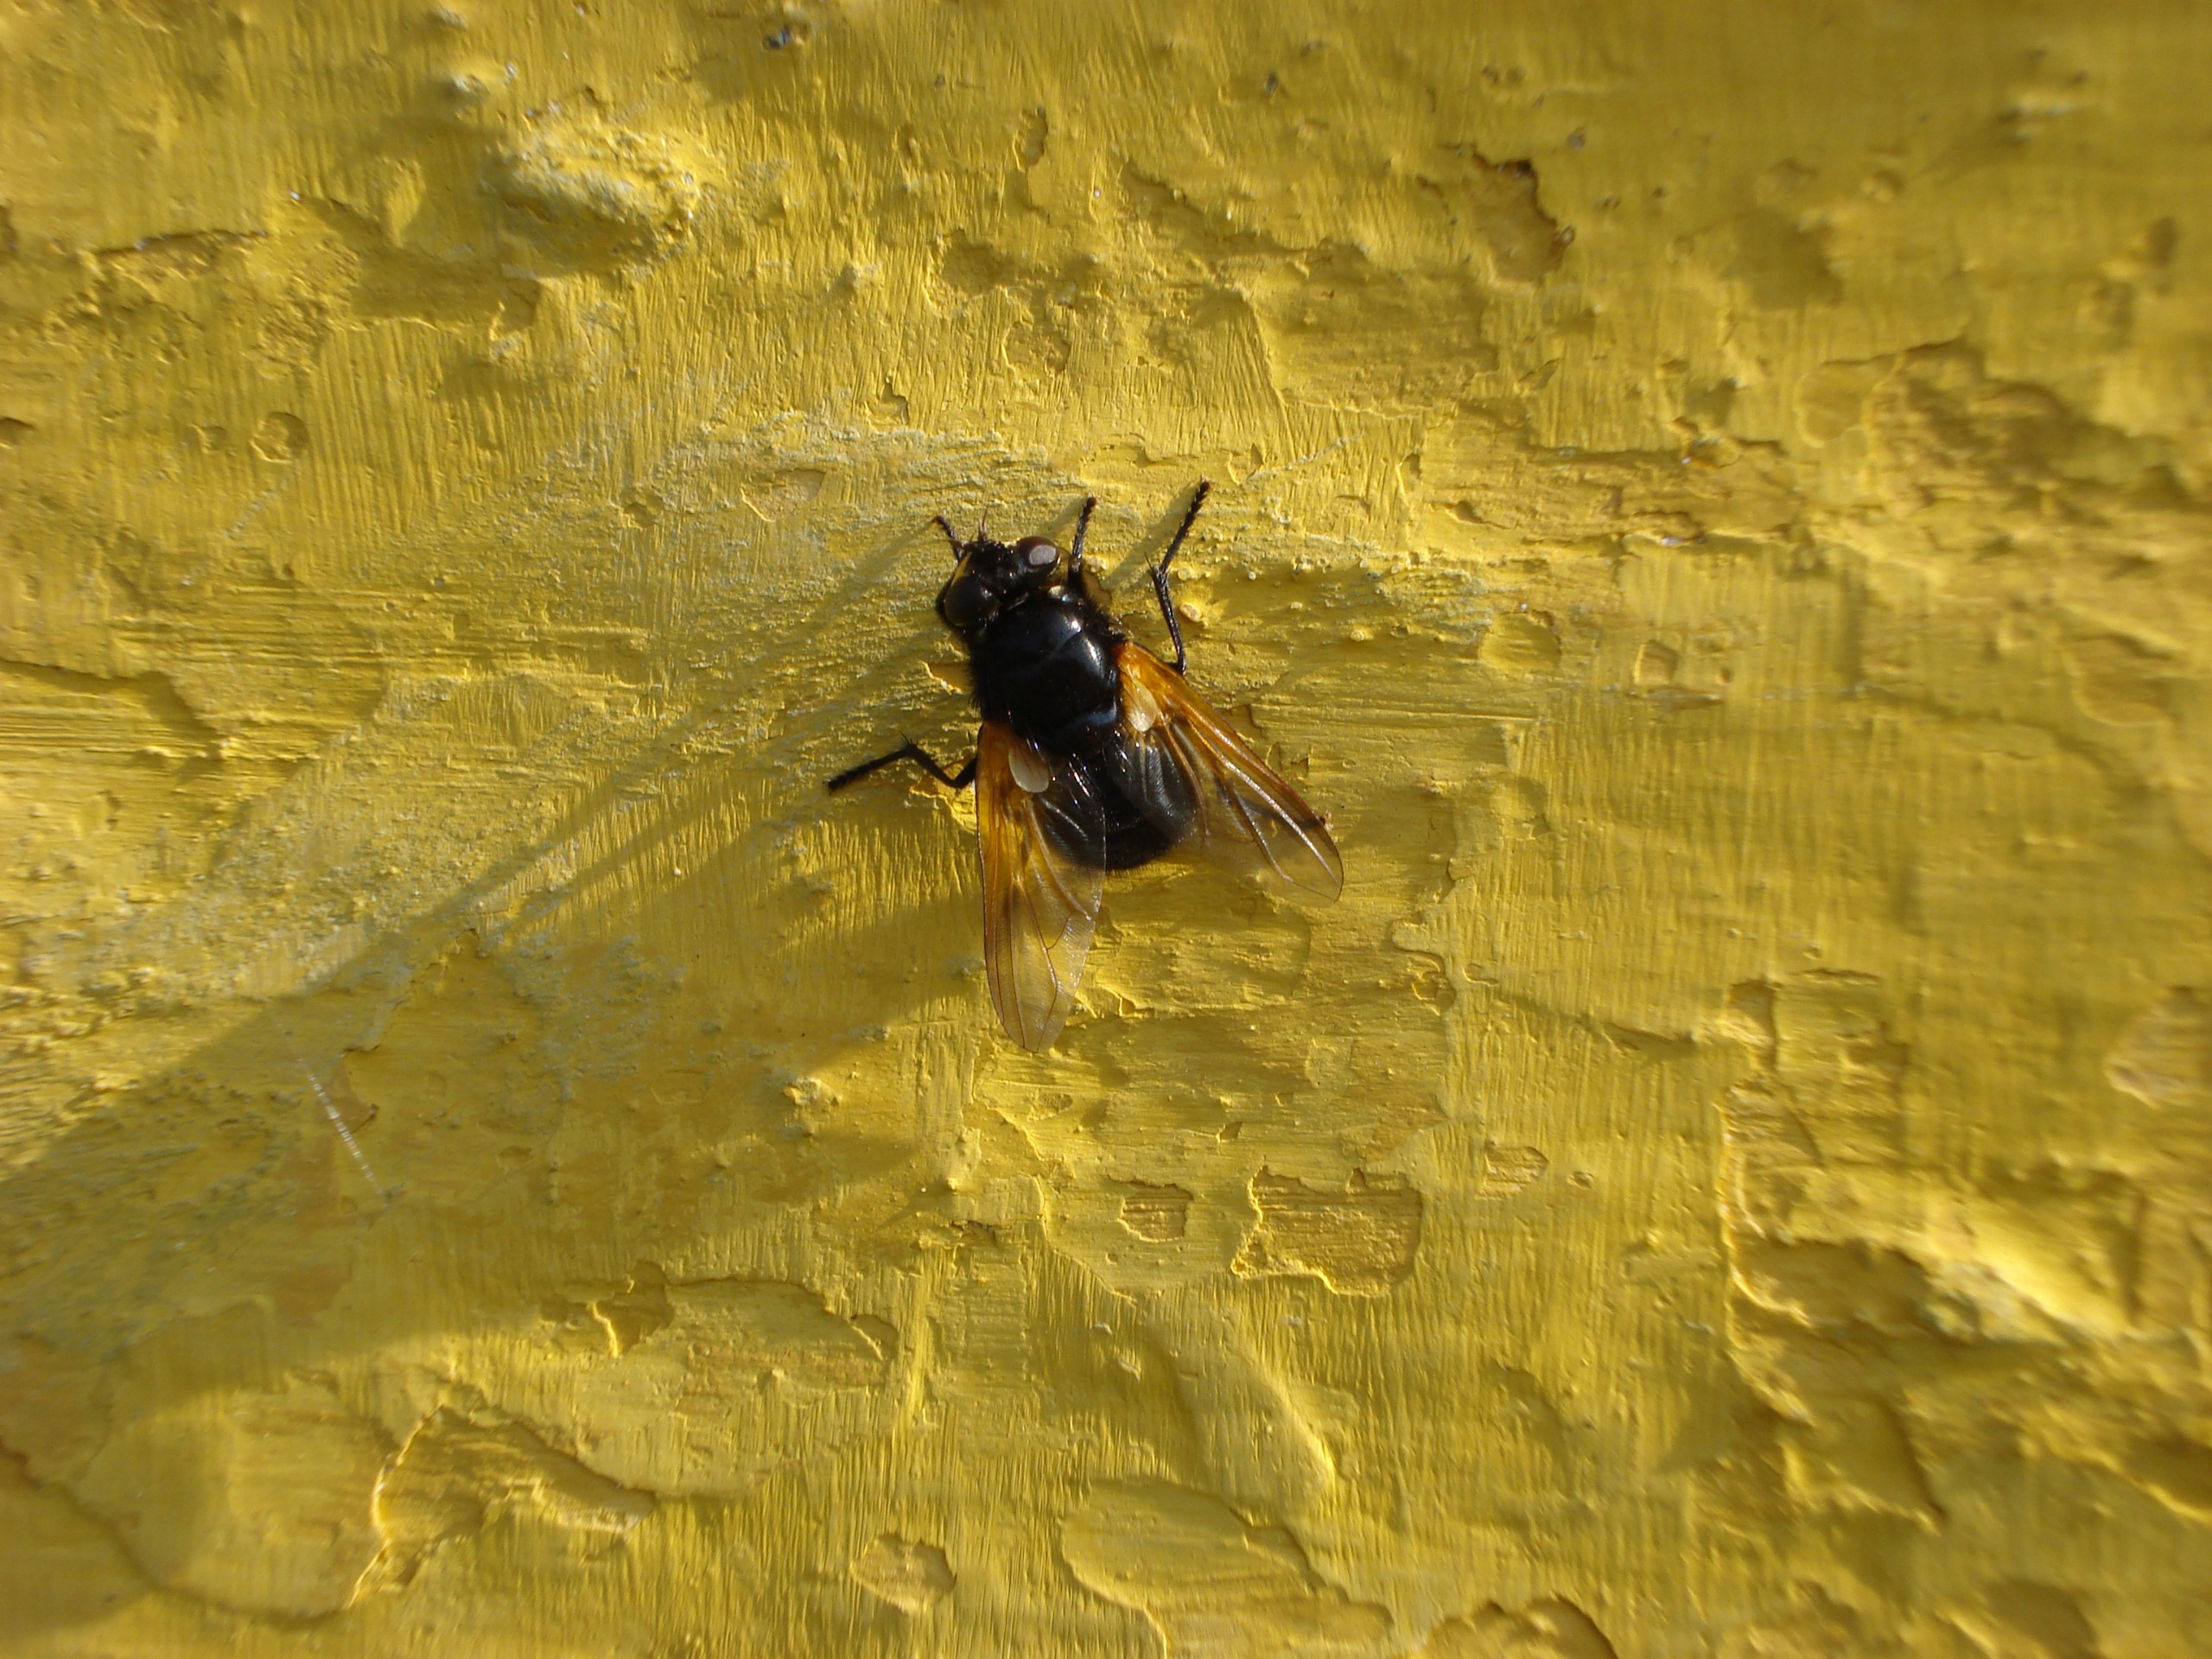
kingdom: Animalia
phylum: Arthropoda
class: Insecta
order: Diptera
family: Muscidae
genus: Mesembrina
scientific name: Mesembrina meridiana
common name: Gulvinget flue
